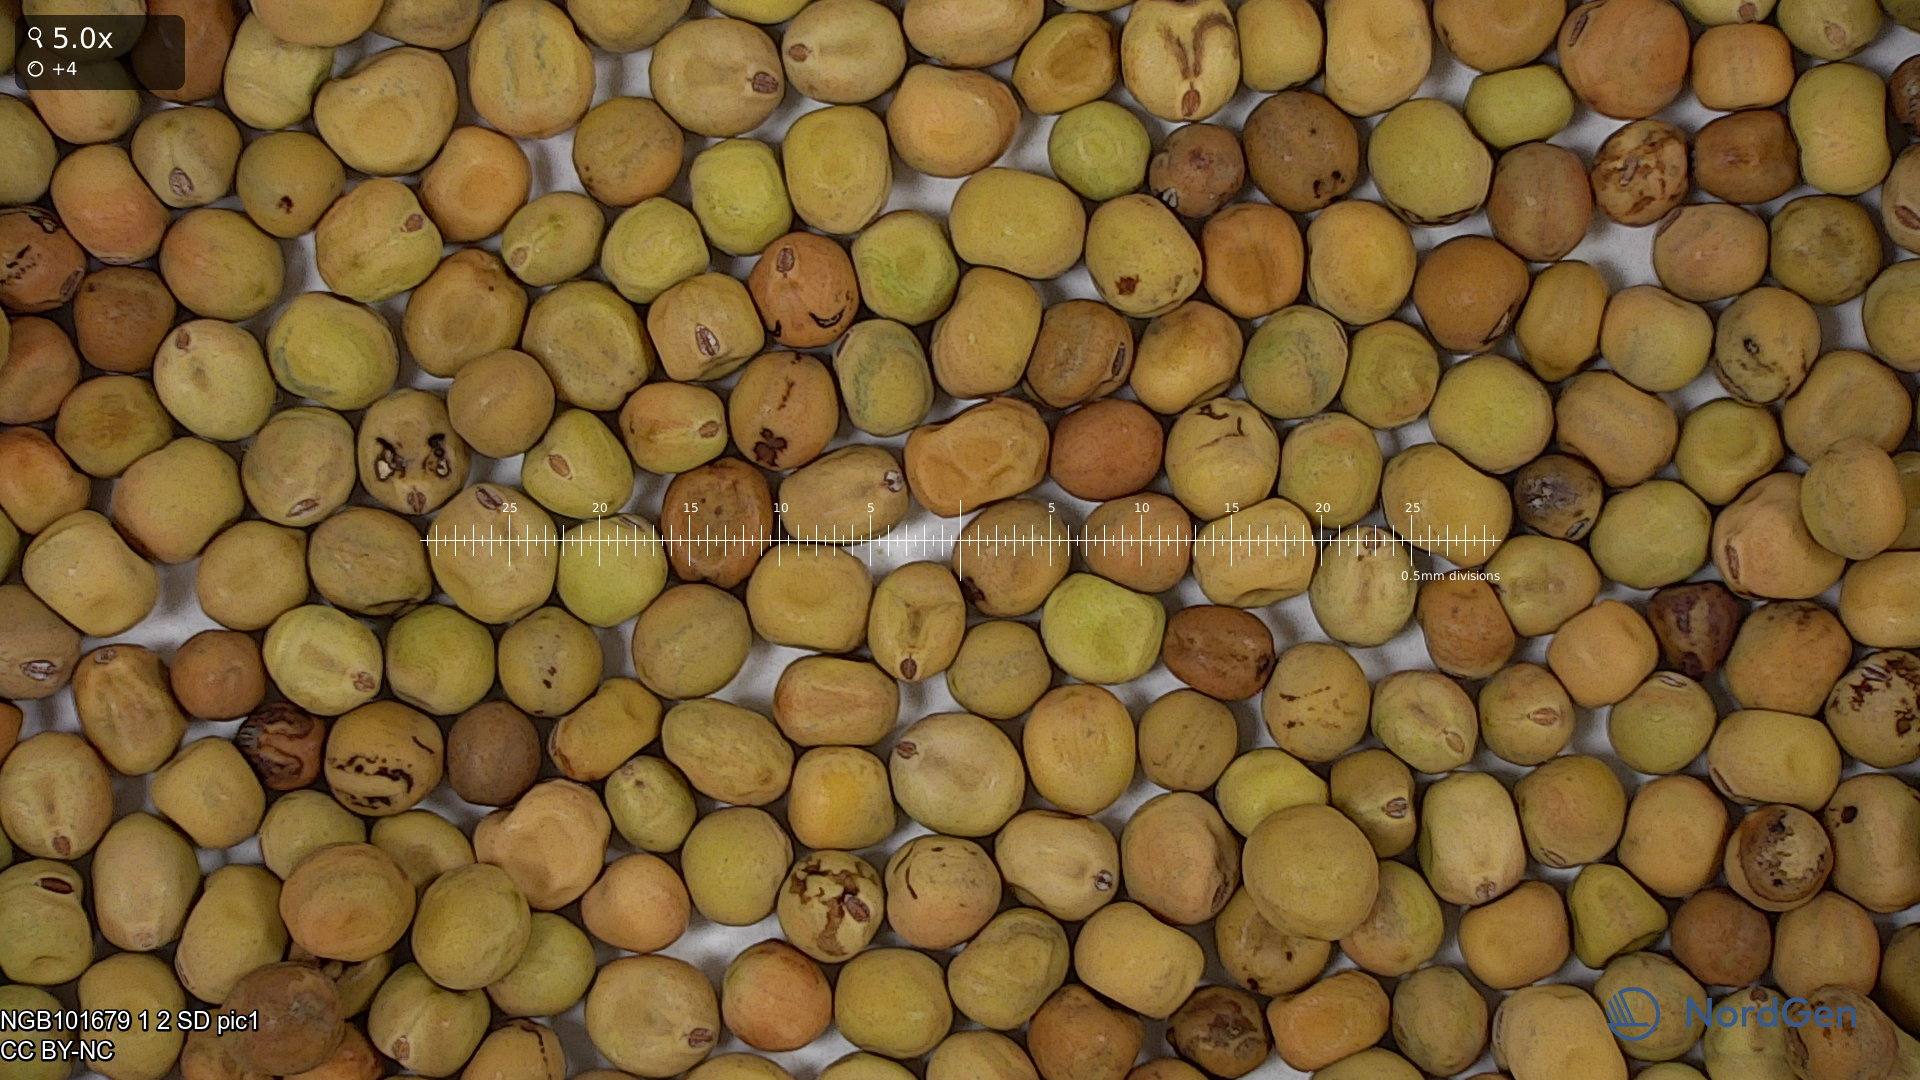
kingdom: Plantae
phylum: Tracheophyta
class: Magnoliopsida
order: Fabales
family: Fabaceae
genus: Lathyrus
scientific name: Lathyrus oleraceus
